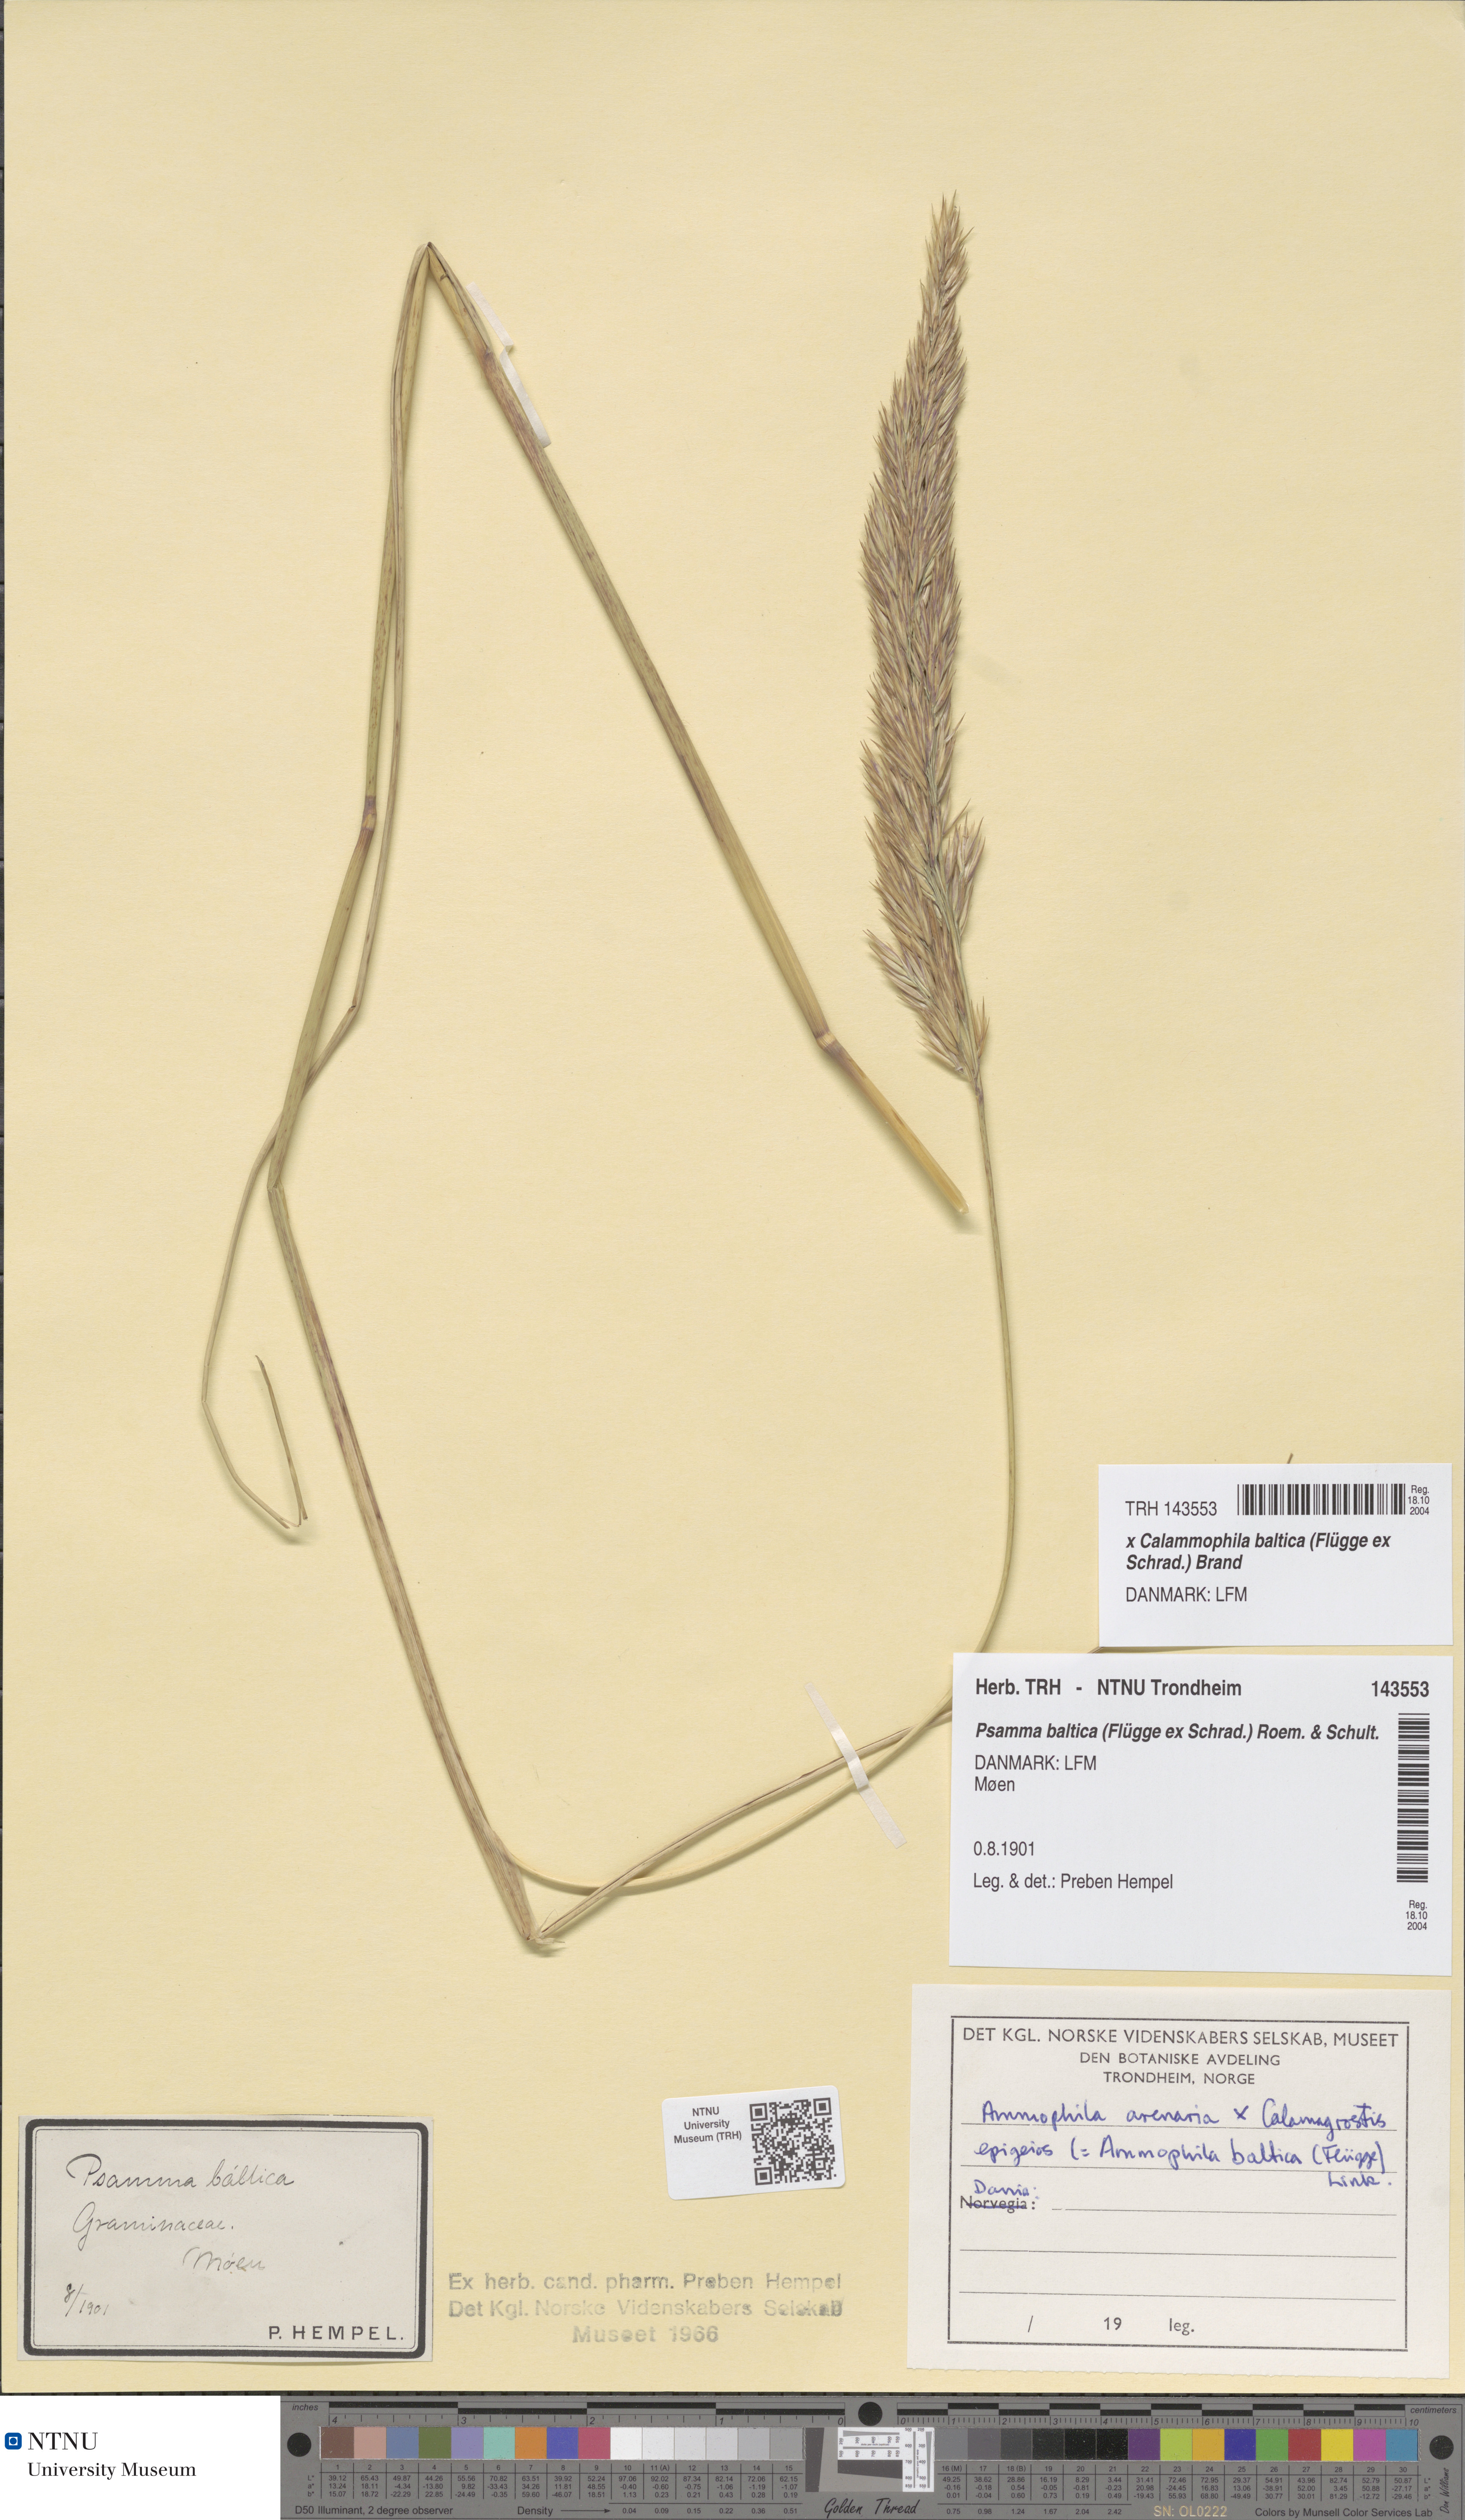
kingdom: Plantae
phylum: Tracheophyta
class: Liliopsida
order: Poales
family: Poaceae
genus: Calamagrostis
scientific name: Calamagrostis baltica
